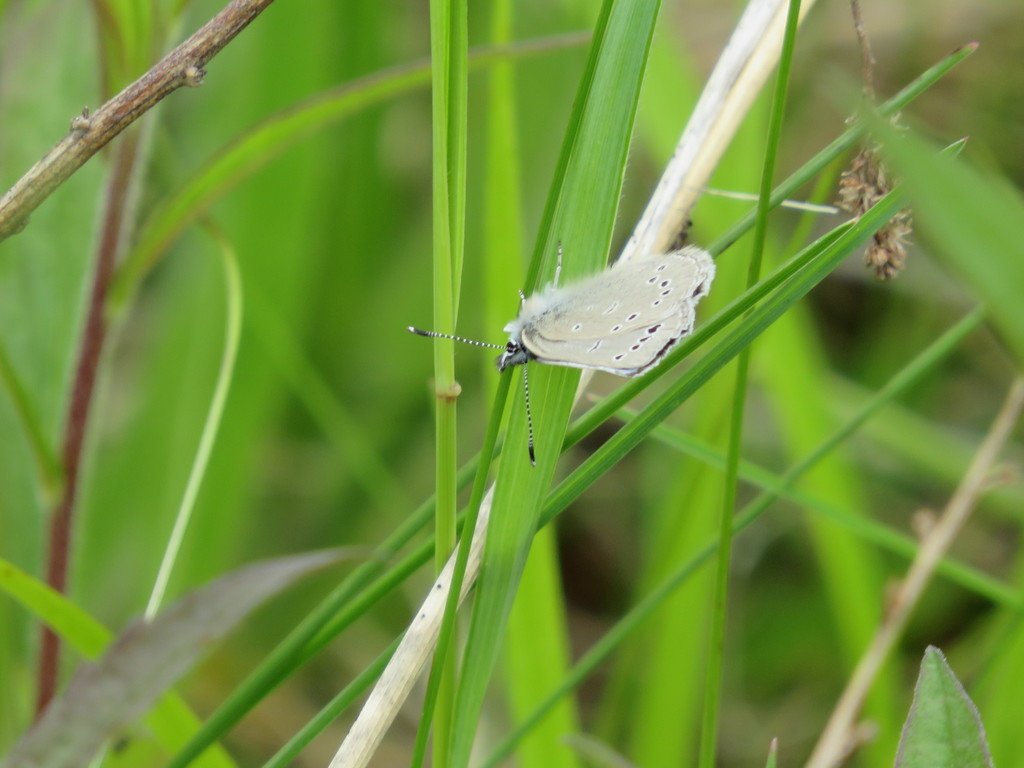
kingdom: Animalia
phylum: Arthropoda
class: Insecta
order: Lepidoptera
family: Lycaenidae
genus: Glaucopsyche
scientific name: Glaucopsyche lygdamus
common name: Silvery Blue
